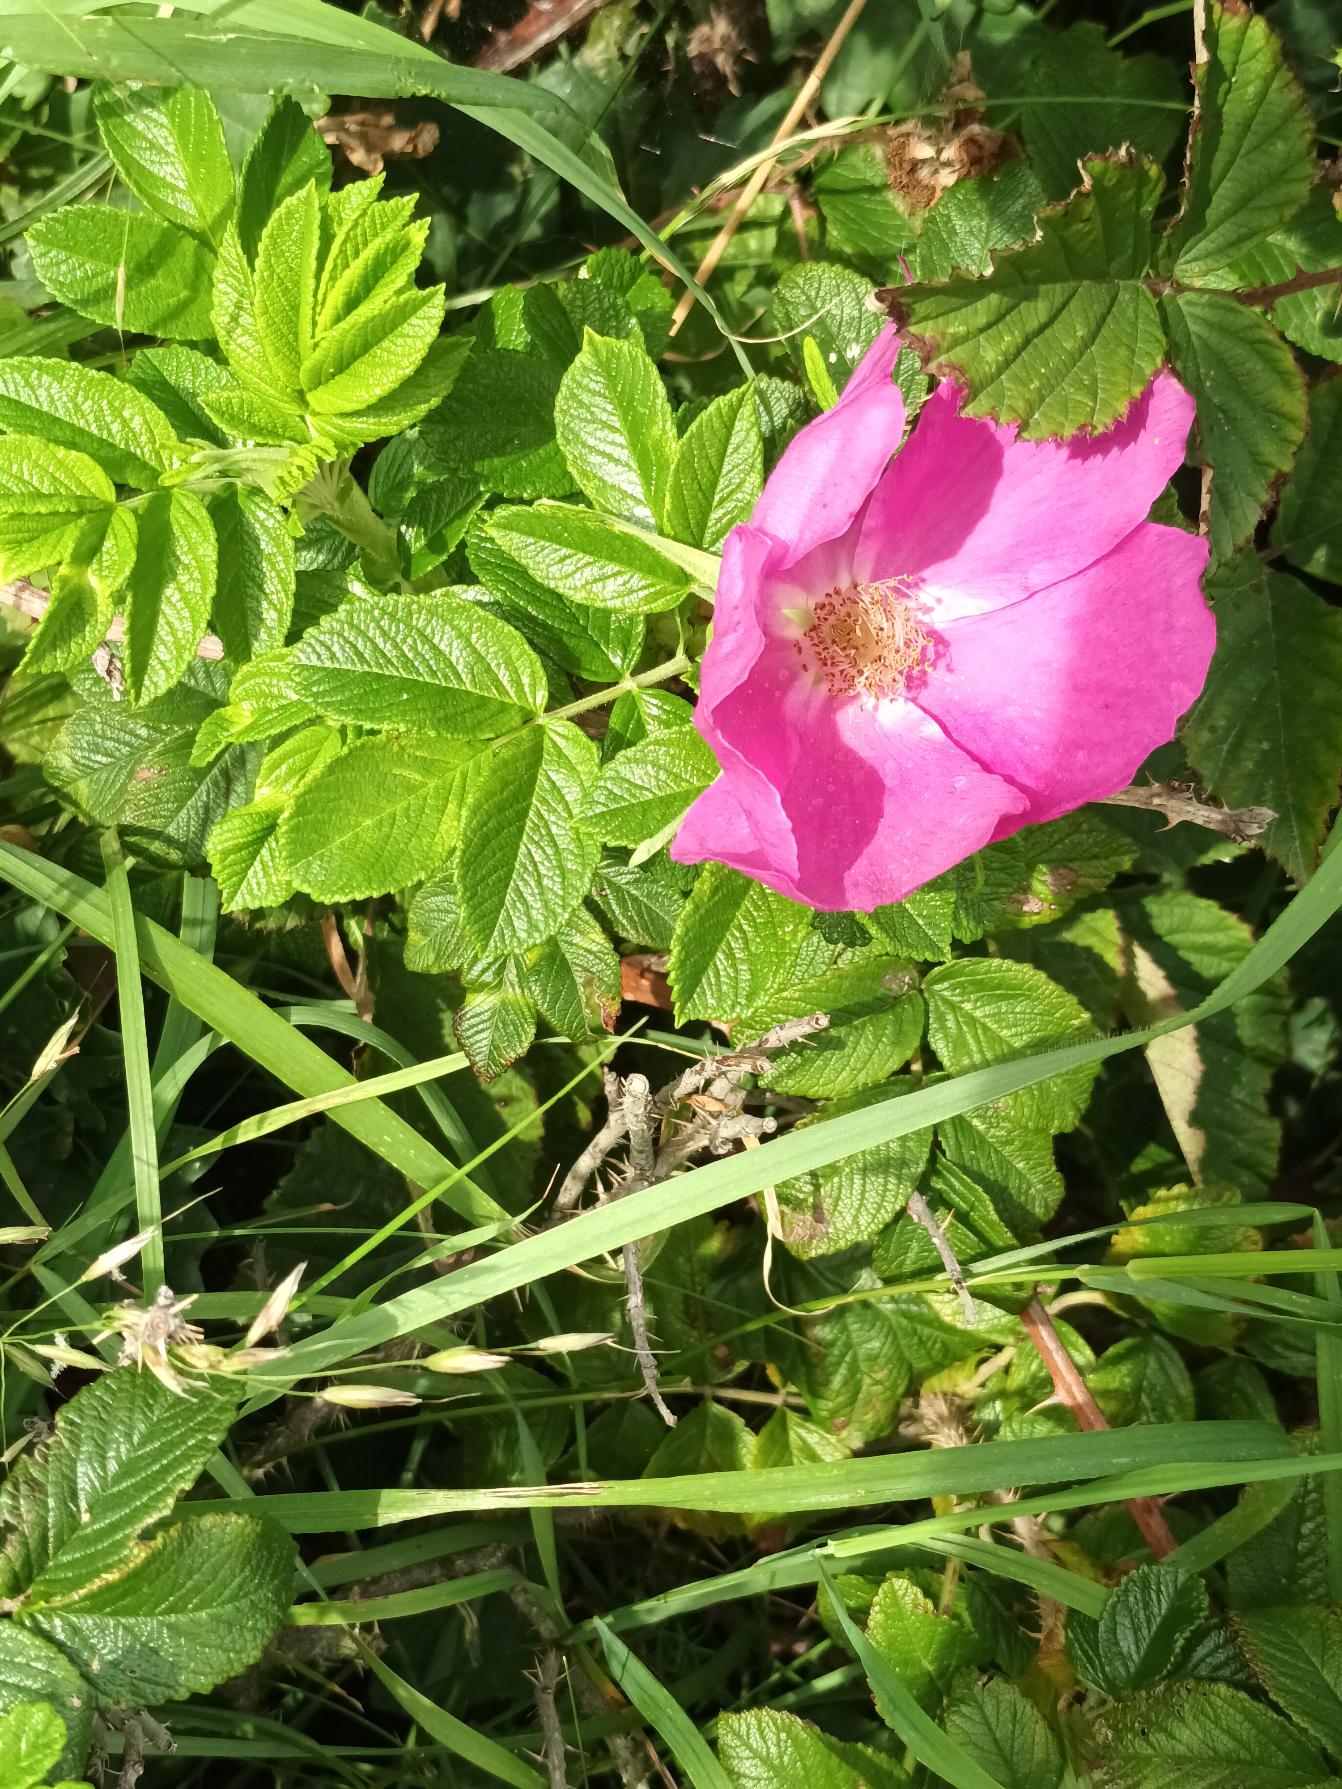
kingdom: Plantae
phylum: Tracheophyta
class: Magnoliopsida
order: Rosales
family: Rosaceae
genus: Rosa
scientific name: Rosa rugosa
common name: Rynket rose
